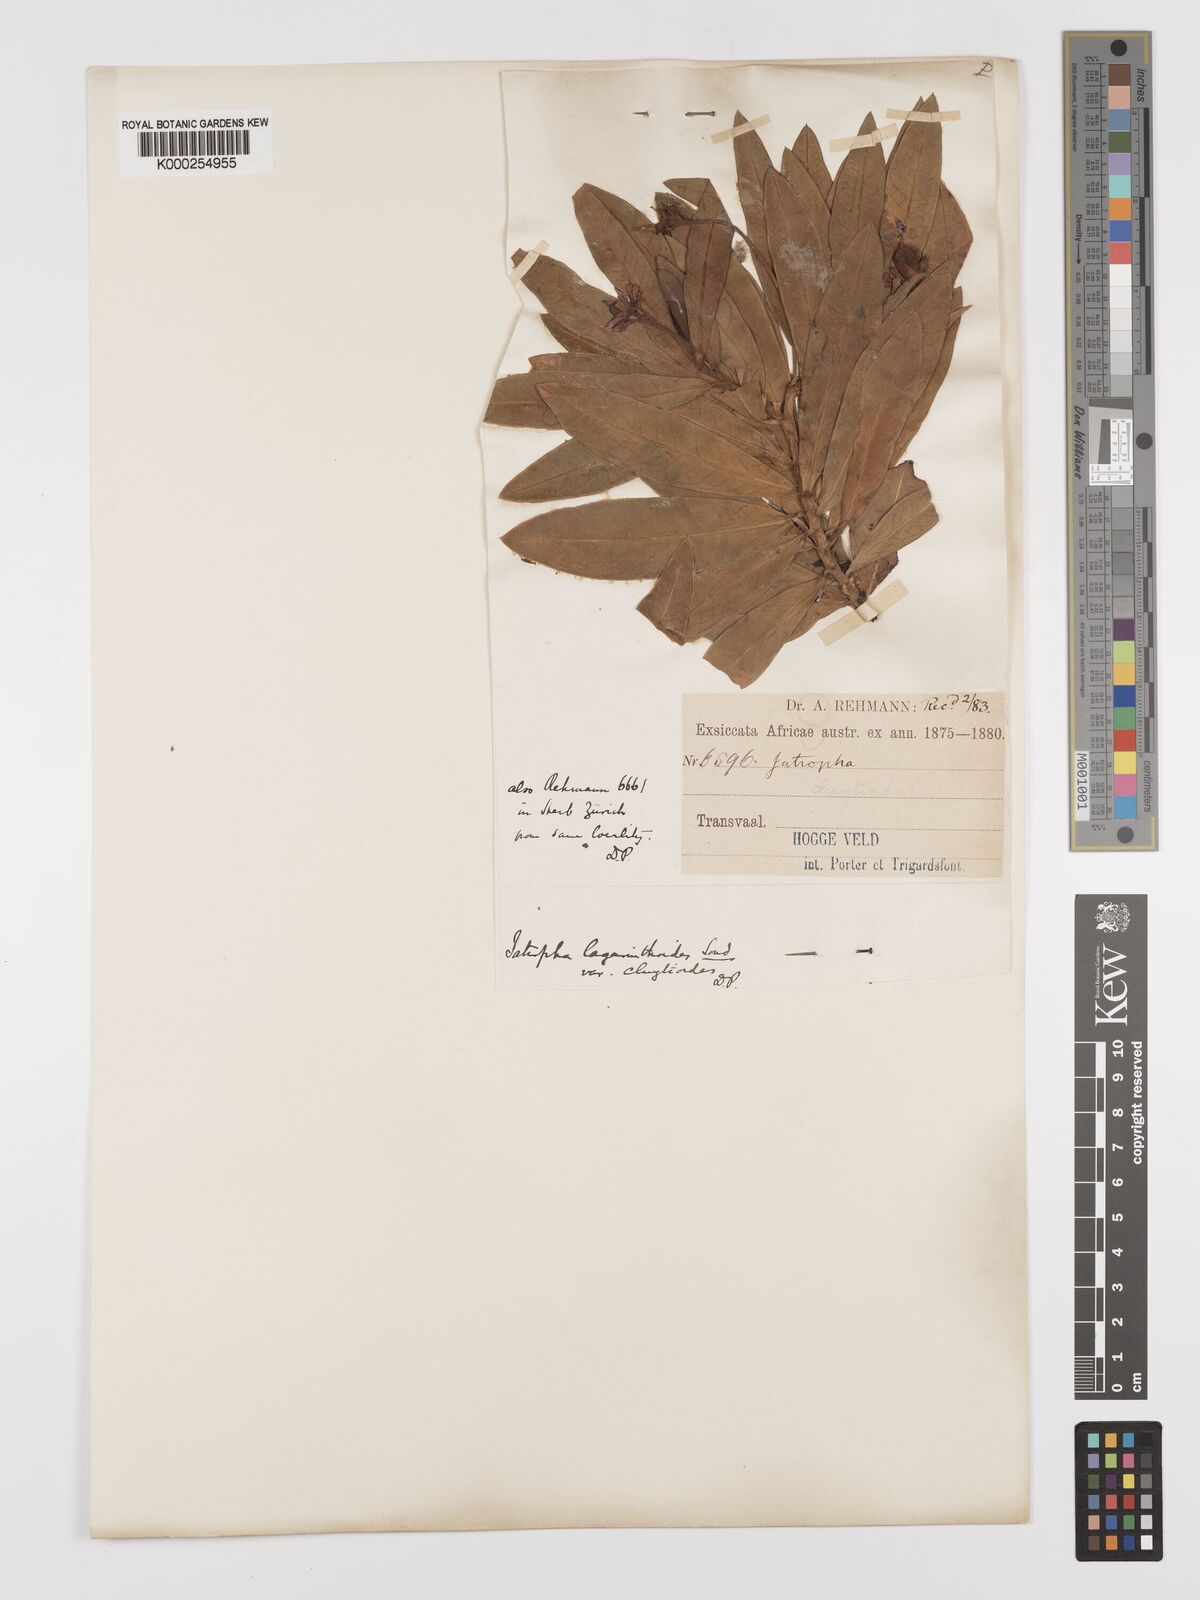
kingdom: Plantae
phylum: Tracheophyta
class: Magnoliopsida
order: Malpighiales
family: Euphorbiaceae
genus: Jatropha
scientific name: Jatropha lagarinthoides
